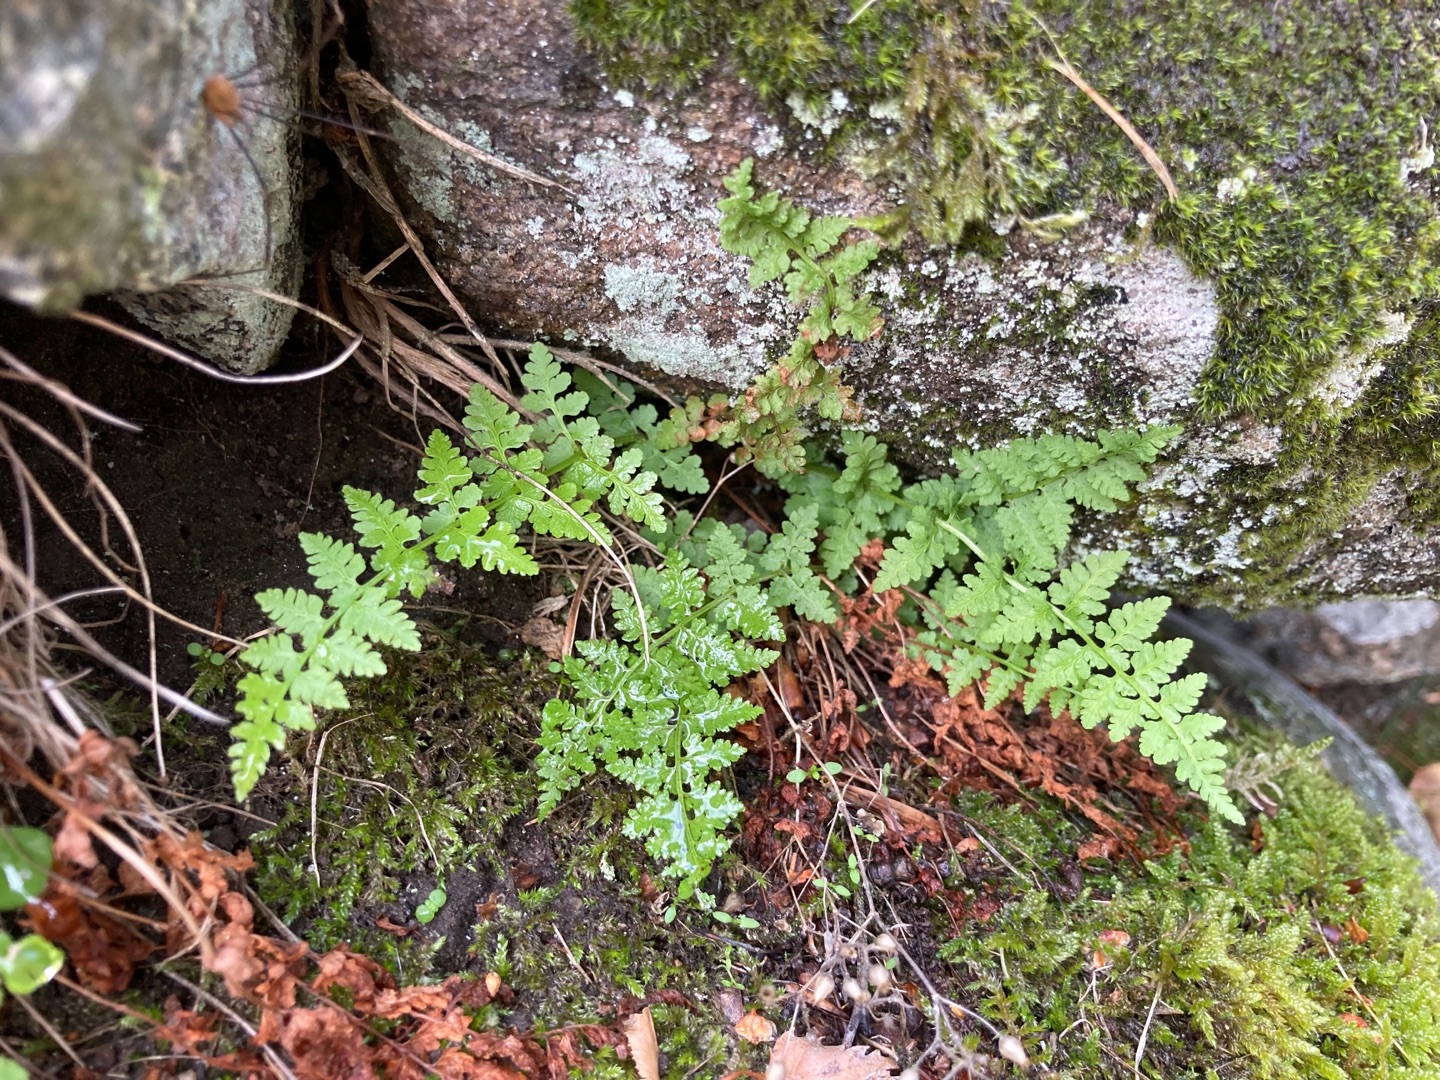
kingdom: Plantae
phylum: Tracheophyta
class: Polypodiopsida
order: Polypodiales
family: Cystopteridaceae
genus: Cystopteris
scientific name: Cystopteris fragilis
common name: Bægerbregne
